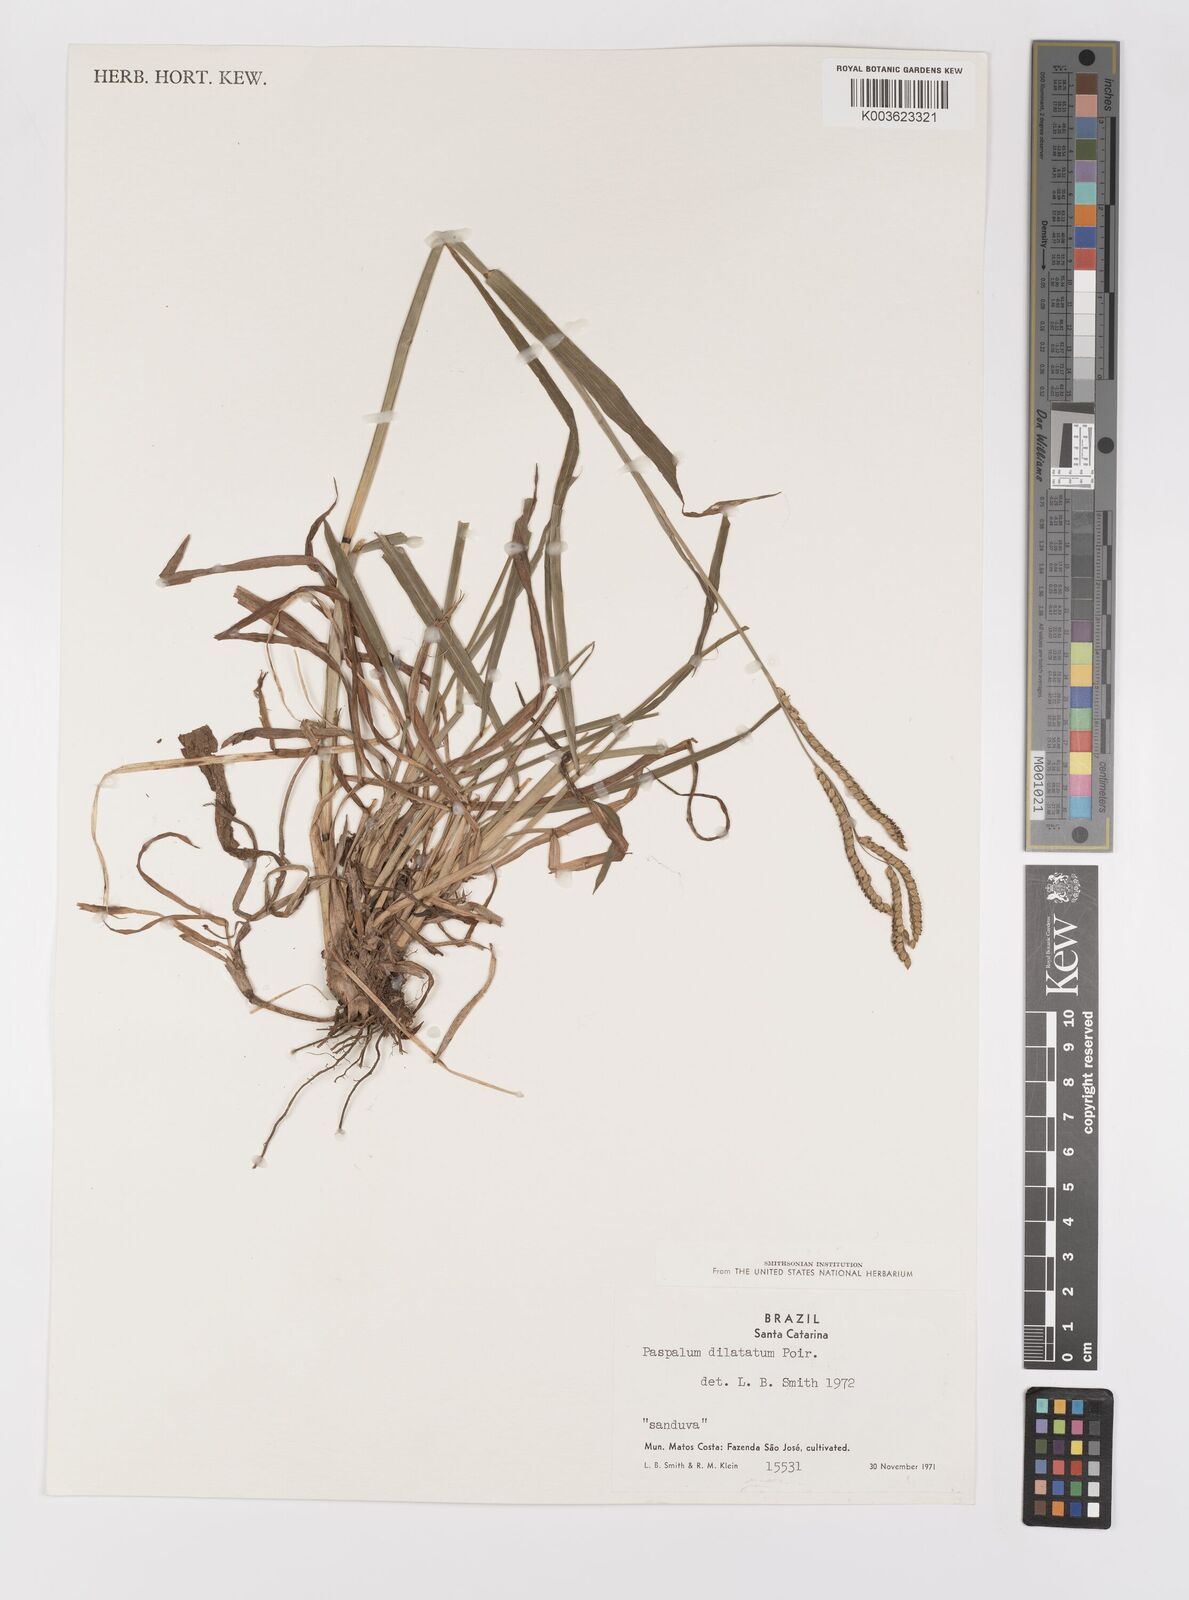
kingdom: Plantae
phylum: Tracheophyta
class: Liliopsida
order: Poales
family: Poaceae
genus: Paspalum
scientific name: Paspalum dilatatum
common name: Dallisgrass
